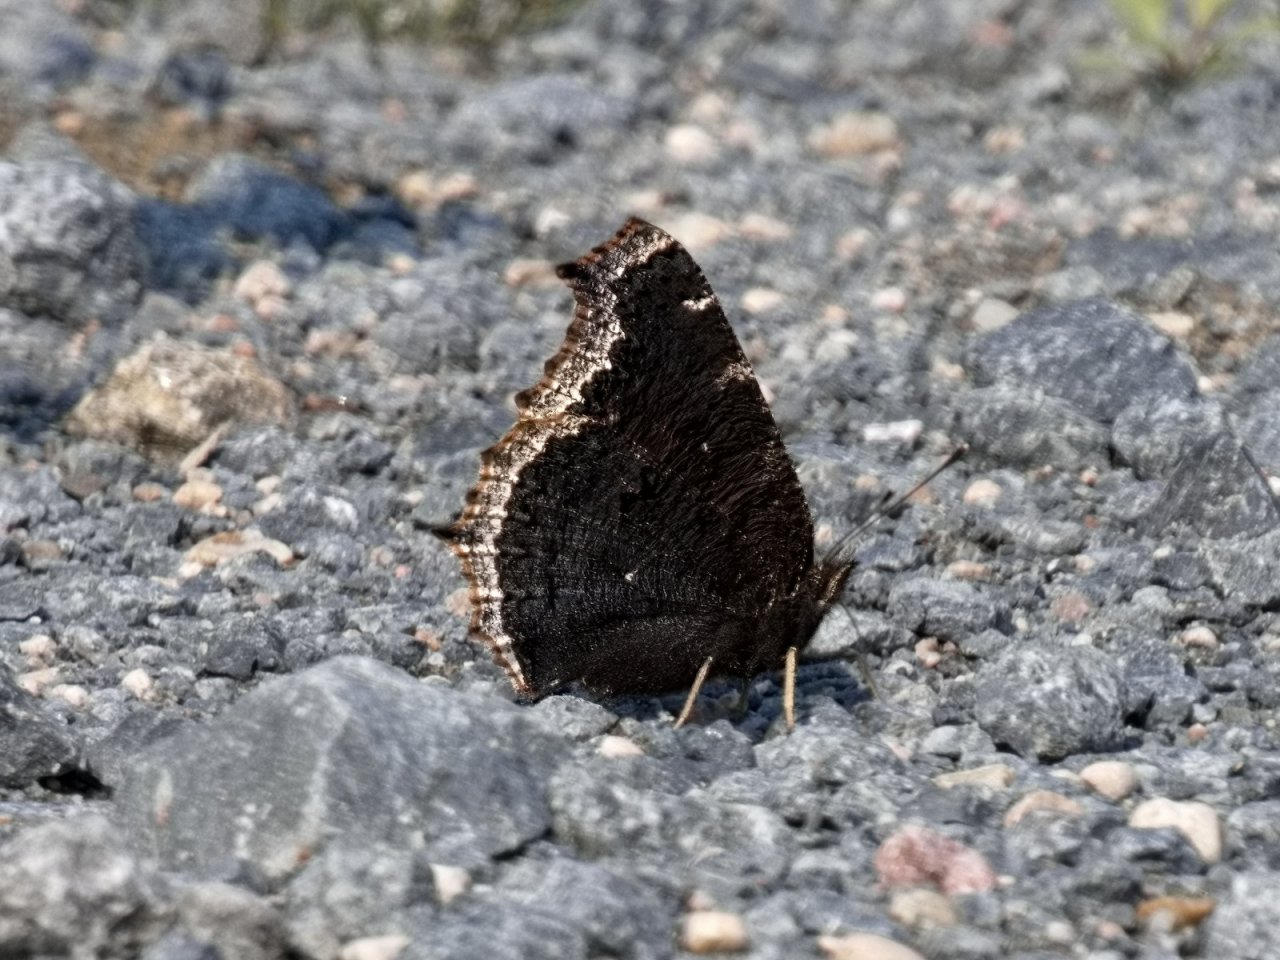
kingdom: Animalia
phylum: Arthropoda
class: Insecta
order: Lepidoptera
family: Nymphalidae
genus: Nymphalis
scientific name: Nymphalis antiopa
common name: Mourning Cloak
